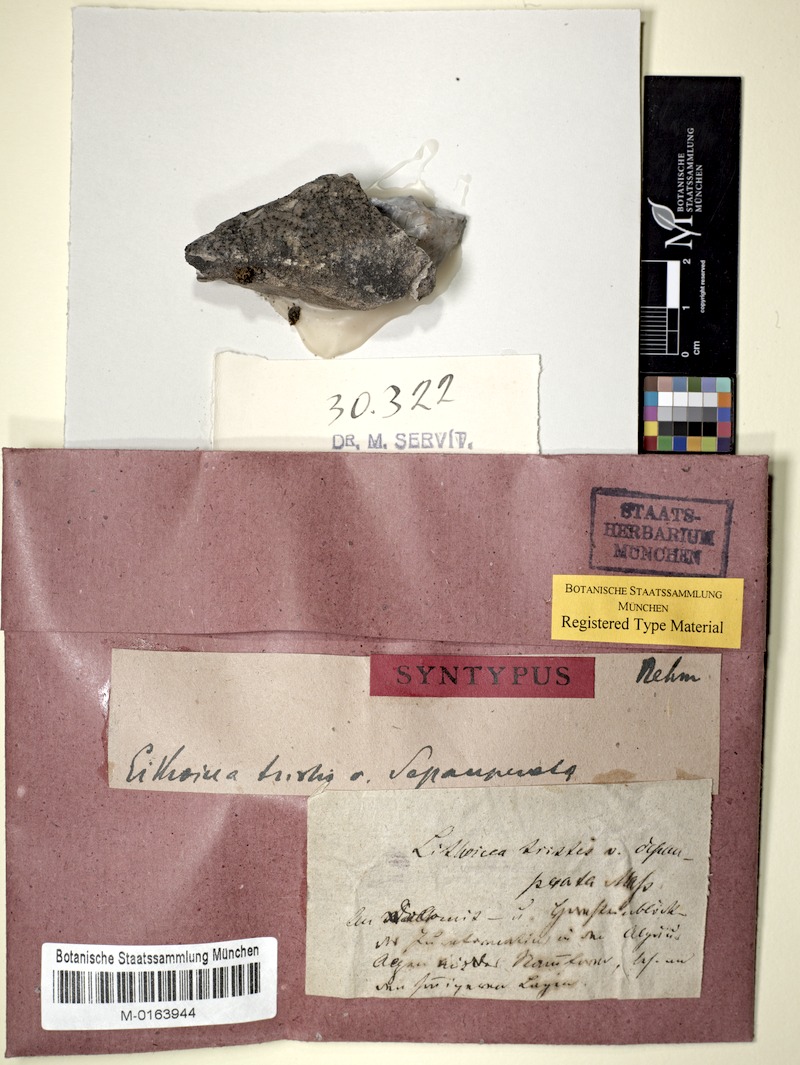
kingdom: Fungi
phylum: Ascomycota
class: Eurotiomycetes
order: Verrucariales
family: Verrucariaceae
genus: Verrucaria
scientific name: Verrucaria Lithocia tristis
